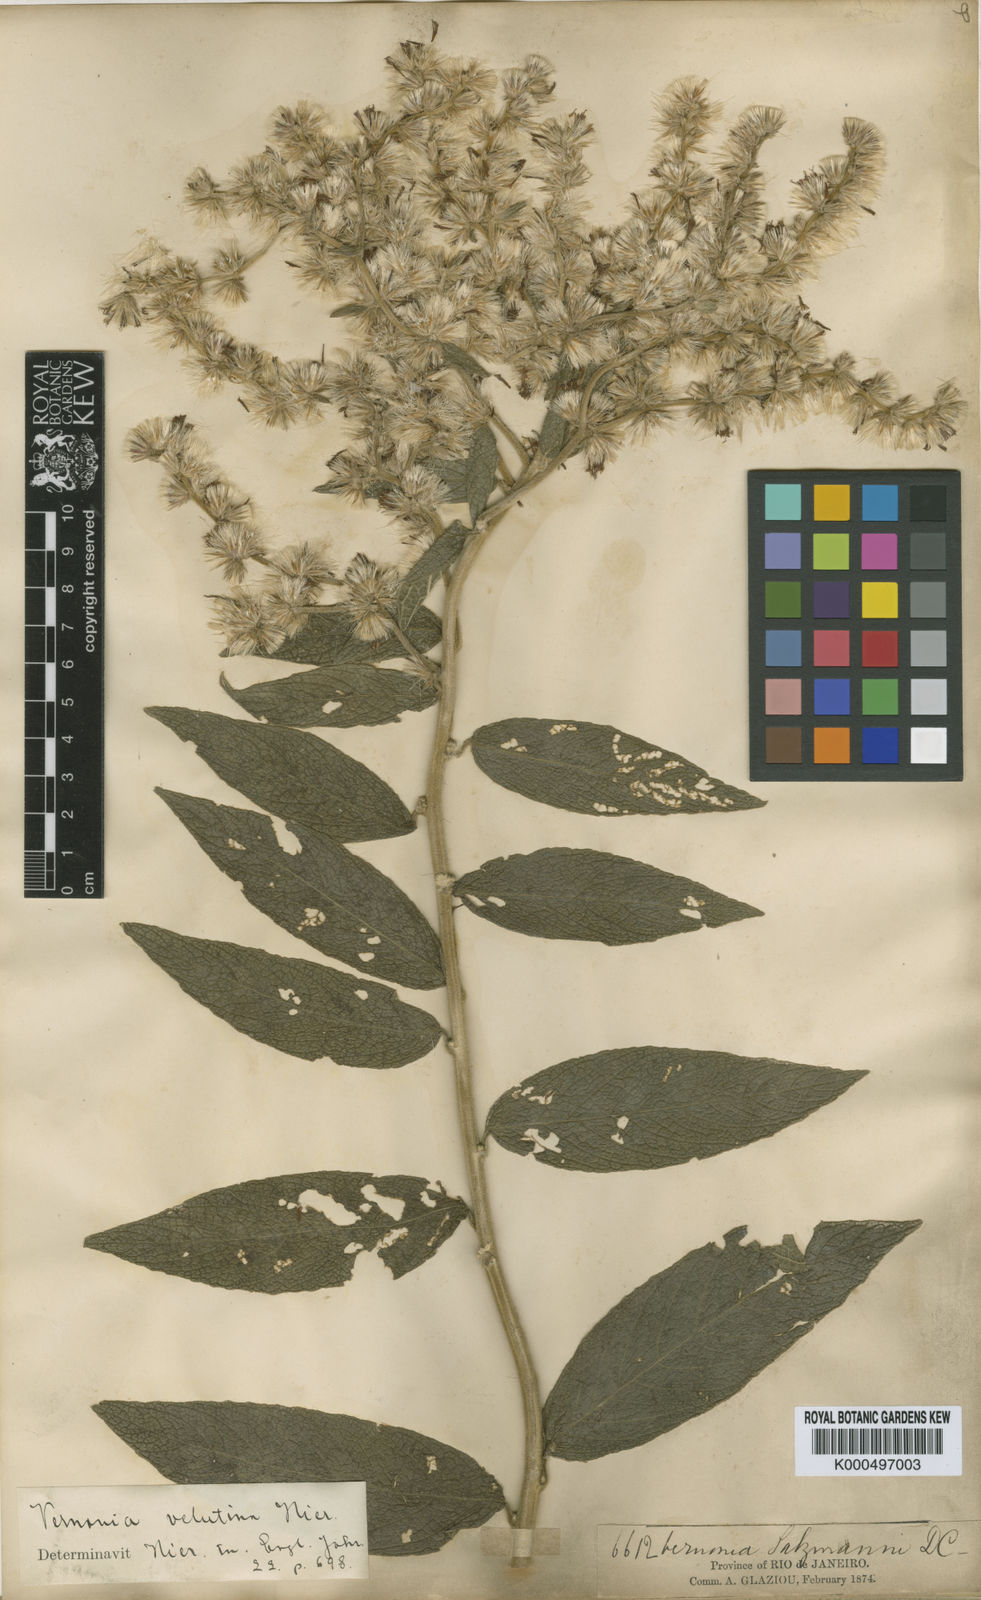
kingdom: Plantae
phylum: Tracheophyta
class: Magnoliopsida
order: Asterales
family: Asteraceae
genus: Lepidaploa
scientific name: Lepidaploa salzmannii
